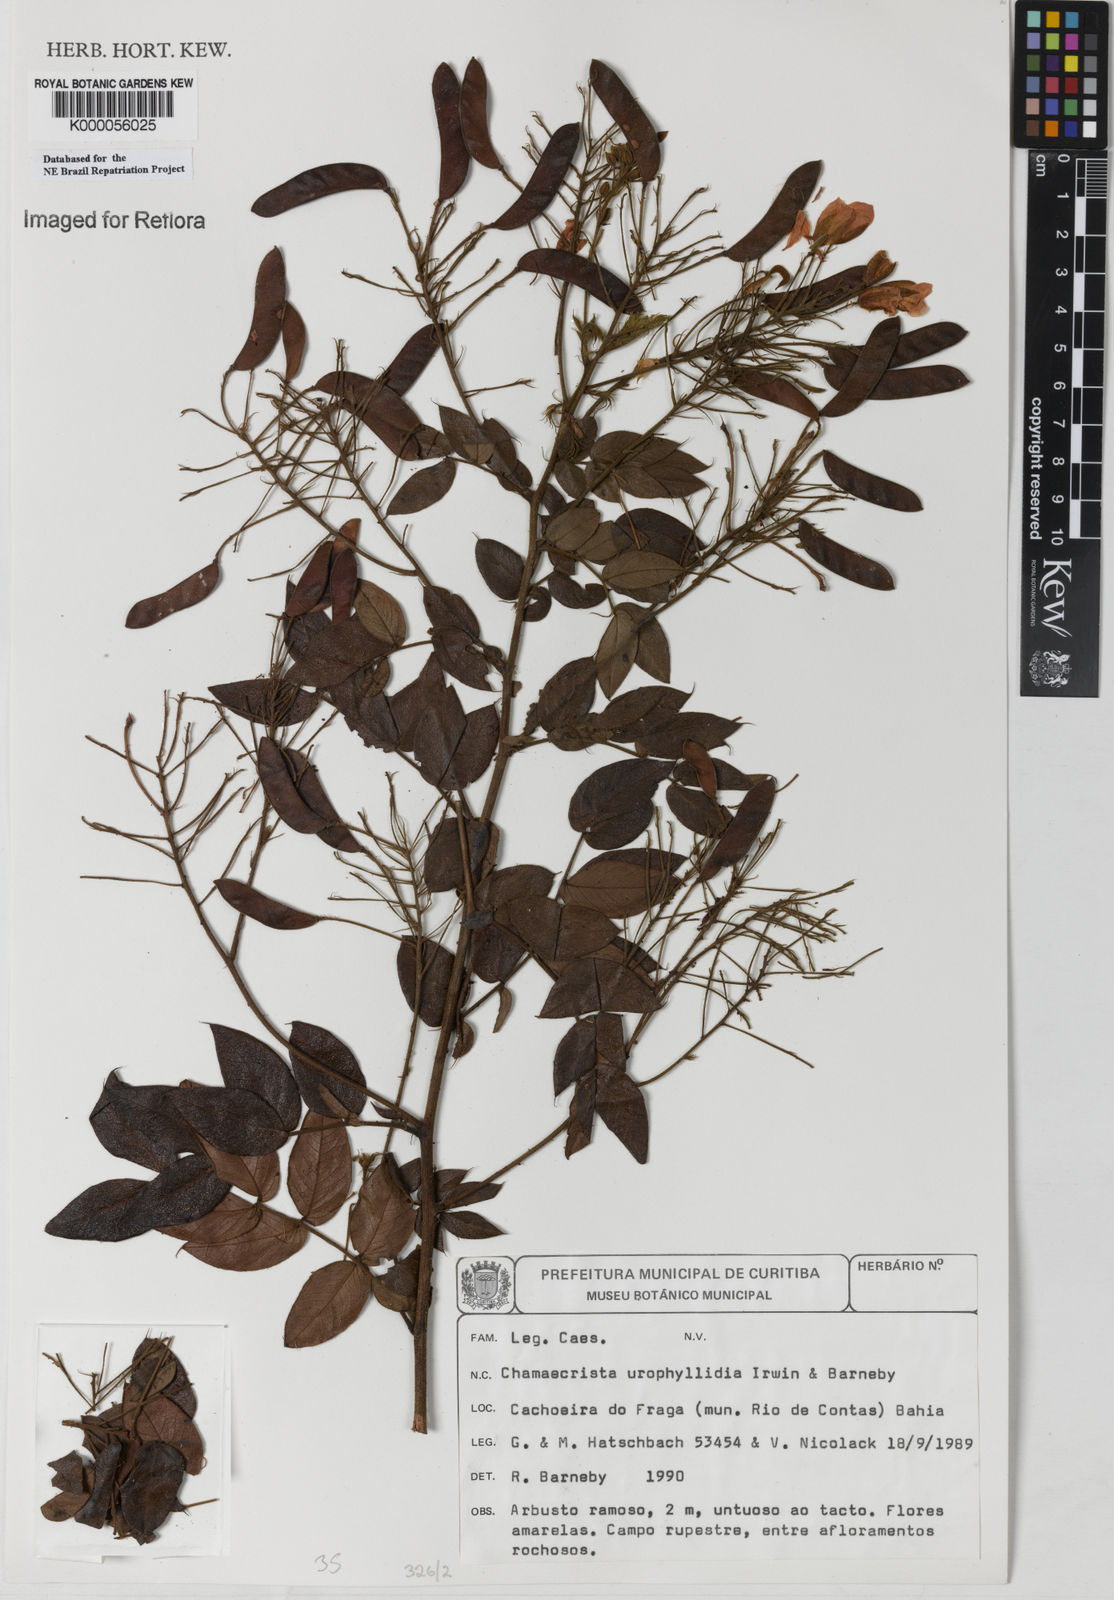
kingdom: Plantae
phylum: Tracheophyta
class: Magnoliopsida
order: Fabales
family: Fabaceae
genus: Chamaecrista
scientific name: Chamaecrista urophyllidia
